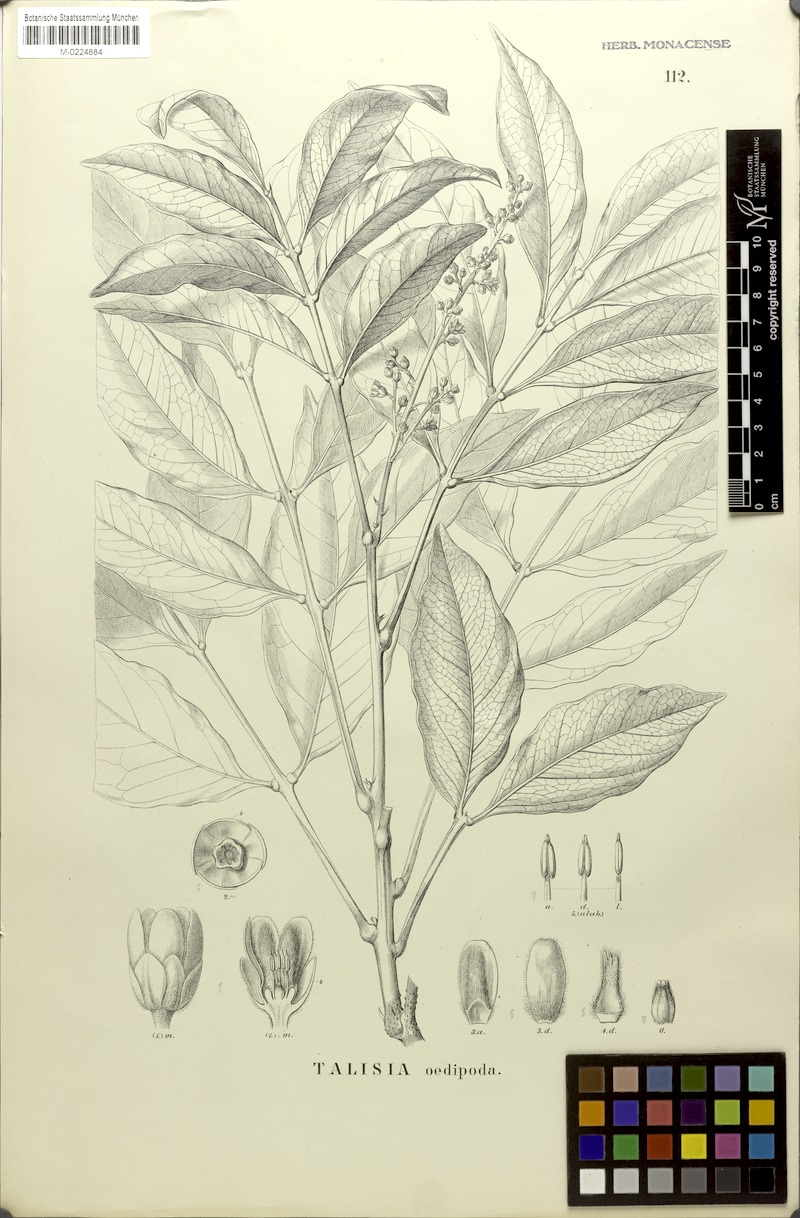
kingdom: Plantae
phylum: Tracheophyta
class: Magnoliopsida
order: Sapindales
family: Sapindaceae
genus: Talisia
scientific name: Talisia oedipoda
